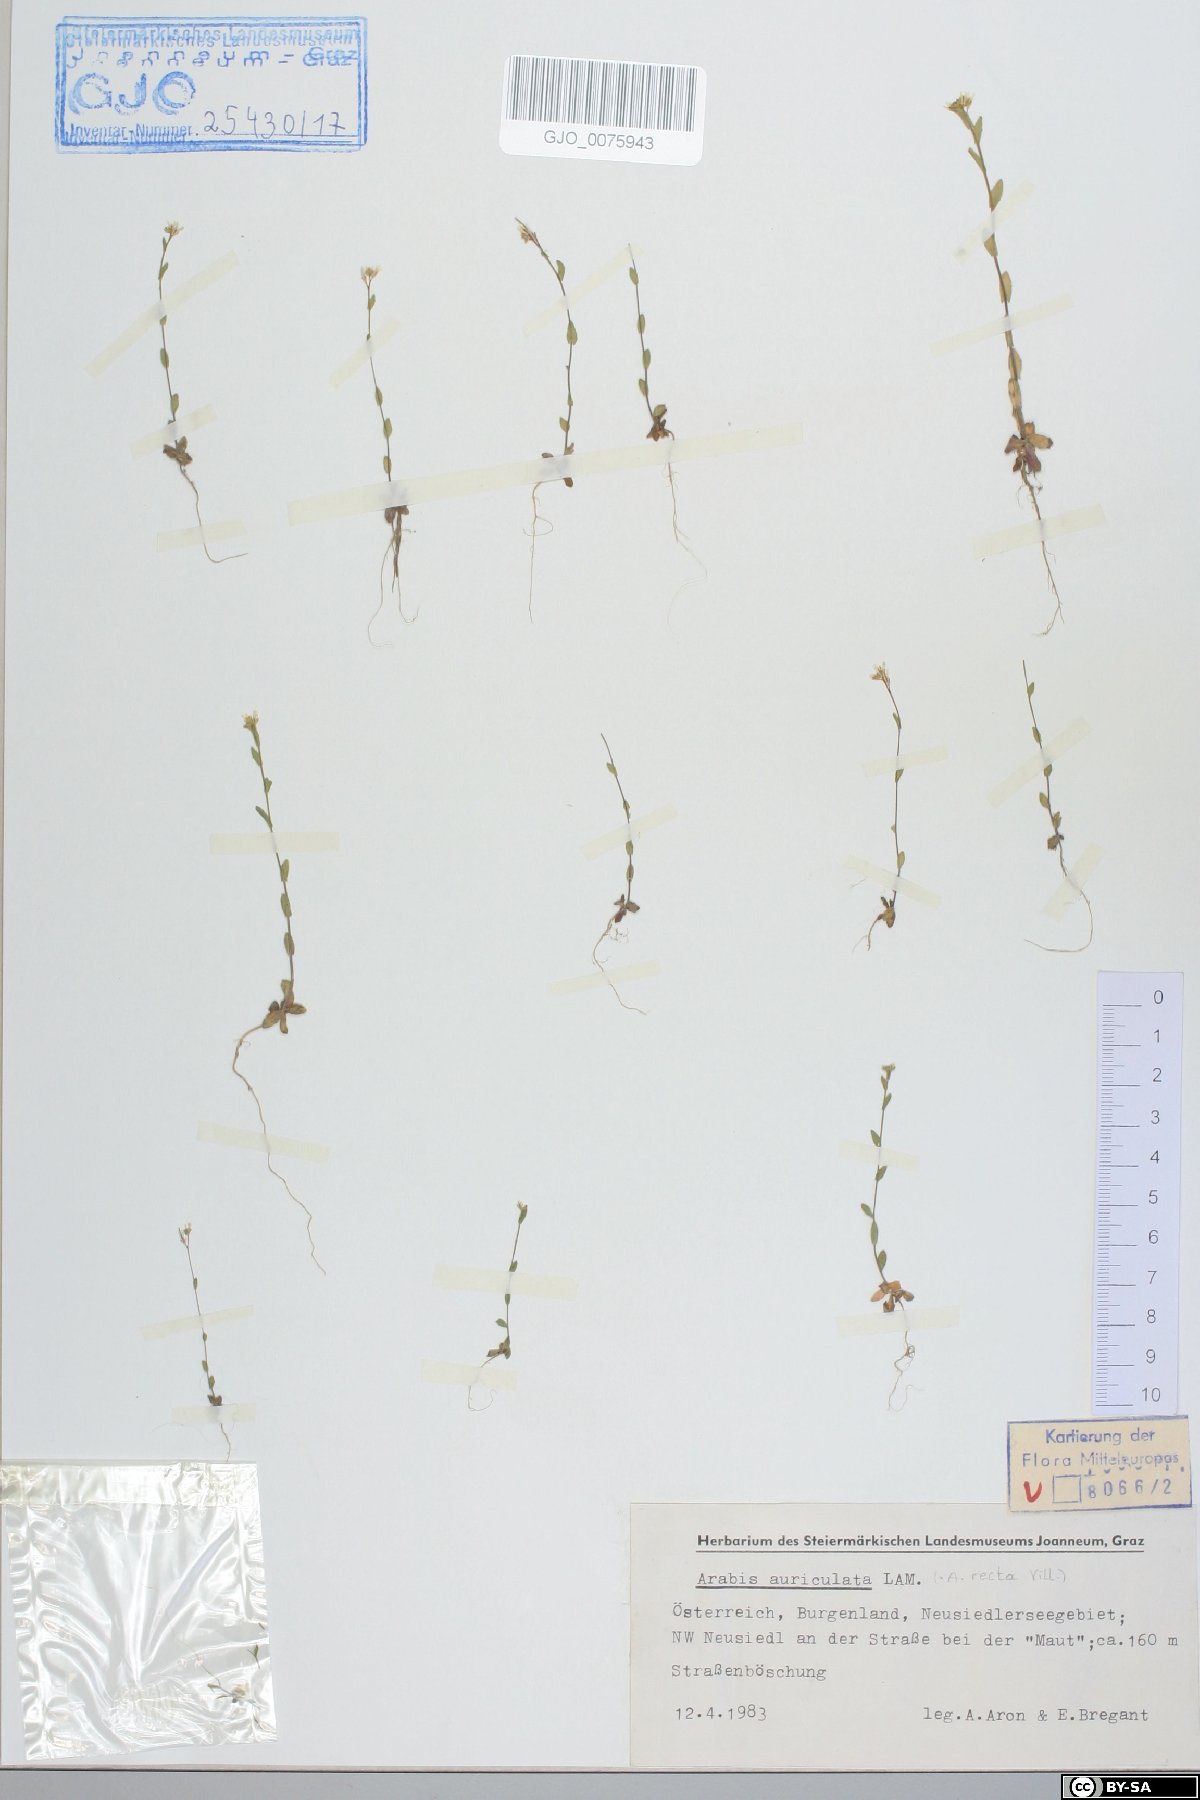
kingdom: Plantae
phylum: Tracheophyta
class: Magnoliopsida
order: Brassicales
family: Brassicaceae
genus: Arabis
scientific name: Arabis auriculata
